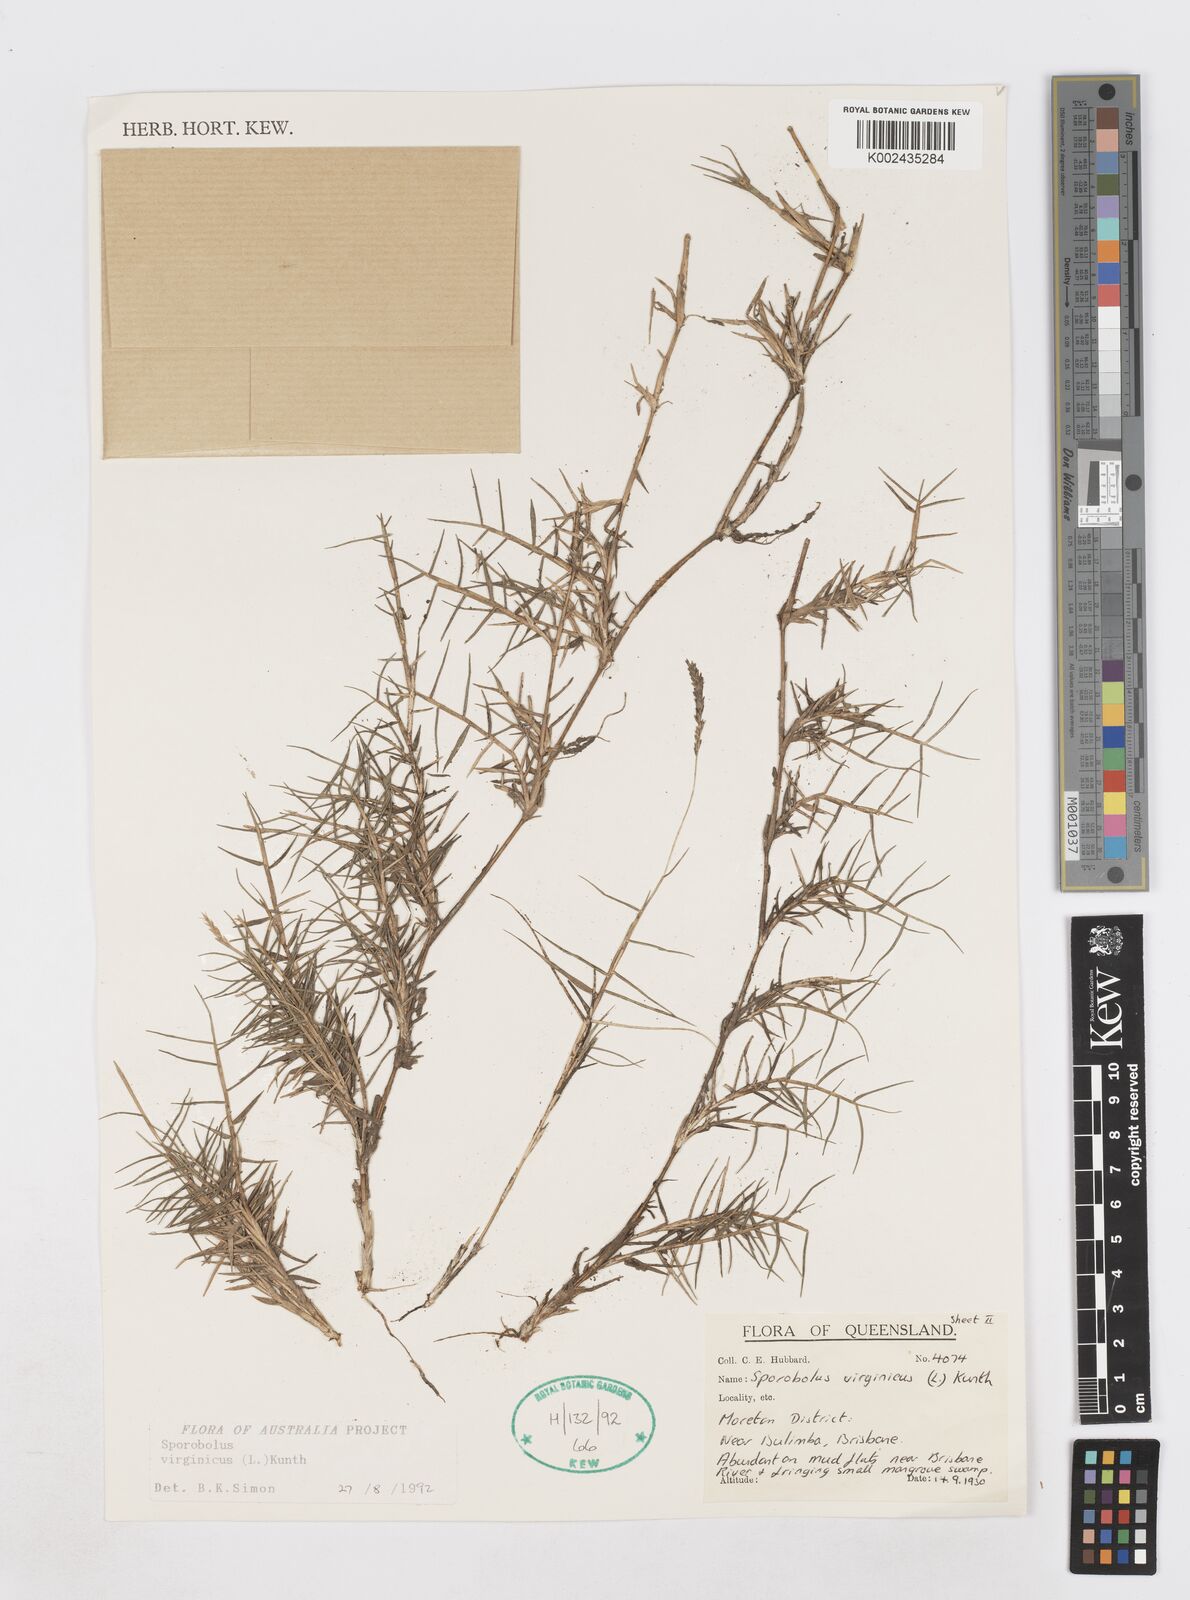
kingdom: Plantae
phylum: Tracheophyta
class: Liliopsida
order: Poales
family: Poaceae
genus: Sporobolus
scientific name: Sporobolus virginicus
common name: Beach dropseed
